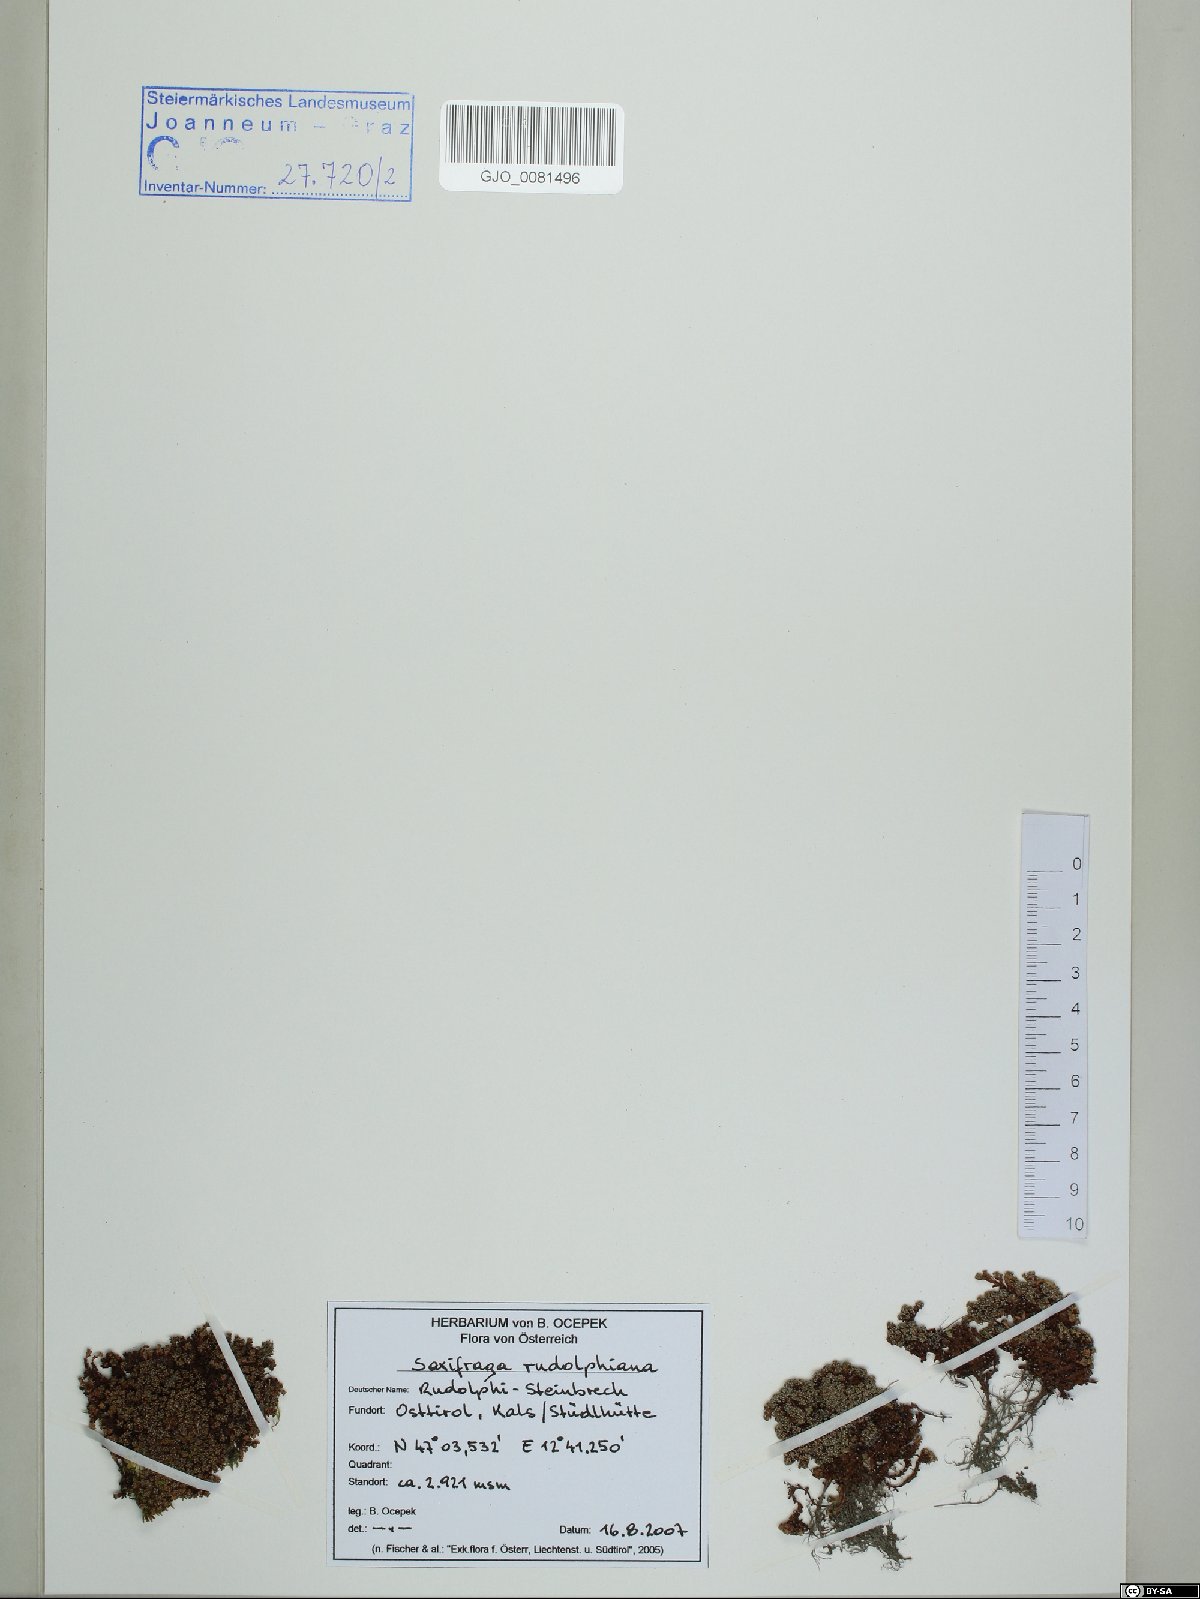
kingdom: Plantae
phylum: Tracheophyta
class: Magnoliopsida
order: Saxifragales
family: Saxifragaceae
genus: Saxifraga
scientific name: Saxifraga oppositifolia
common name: Purple saxifrage
